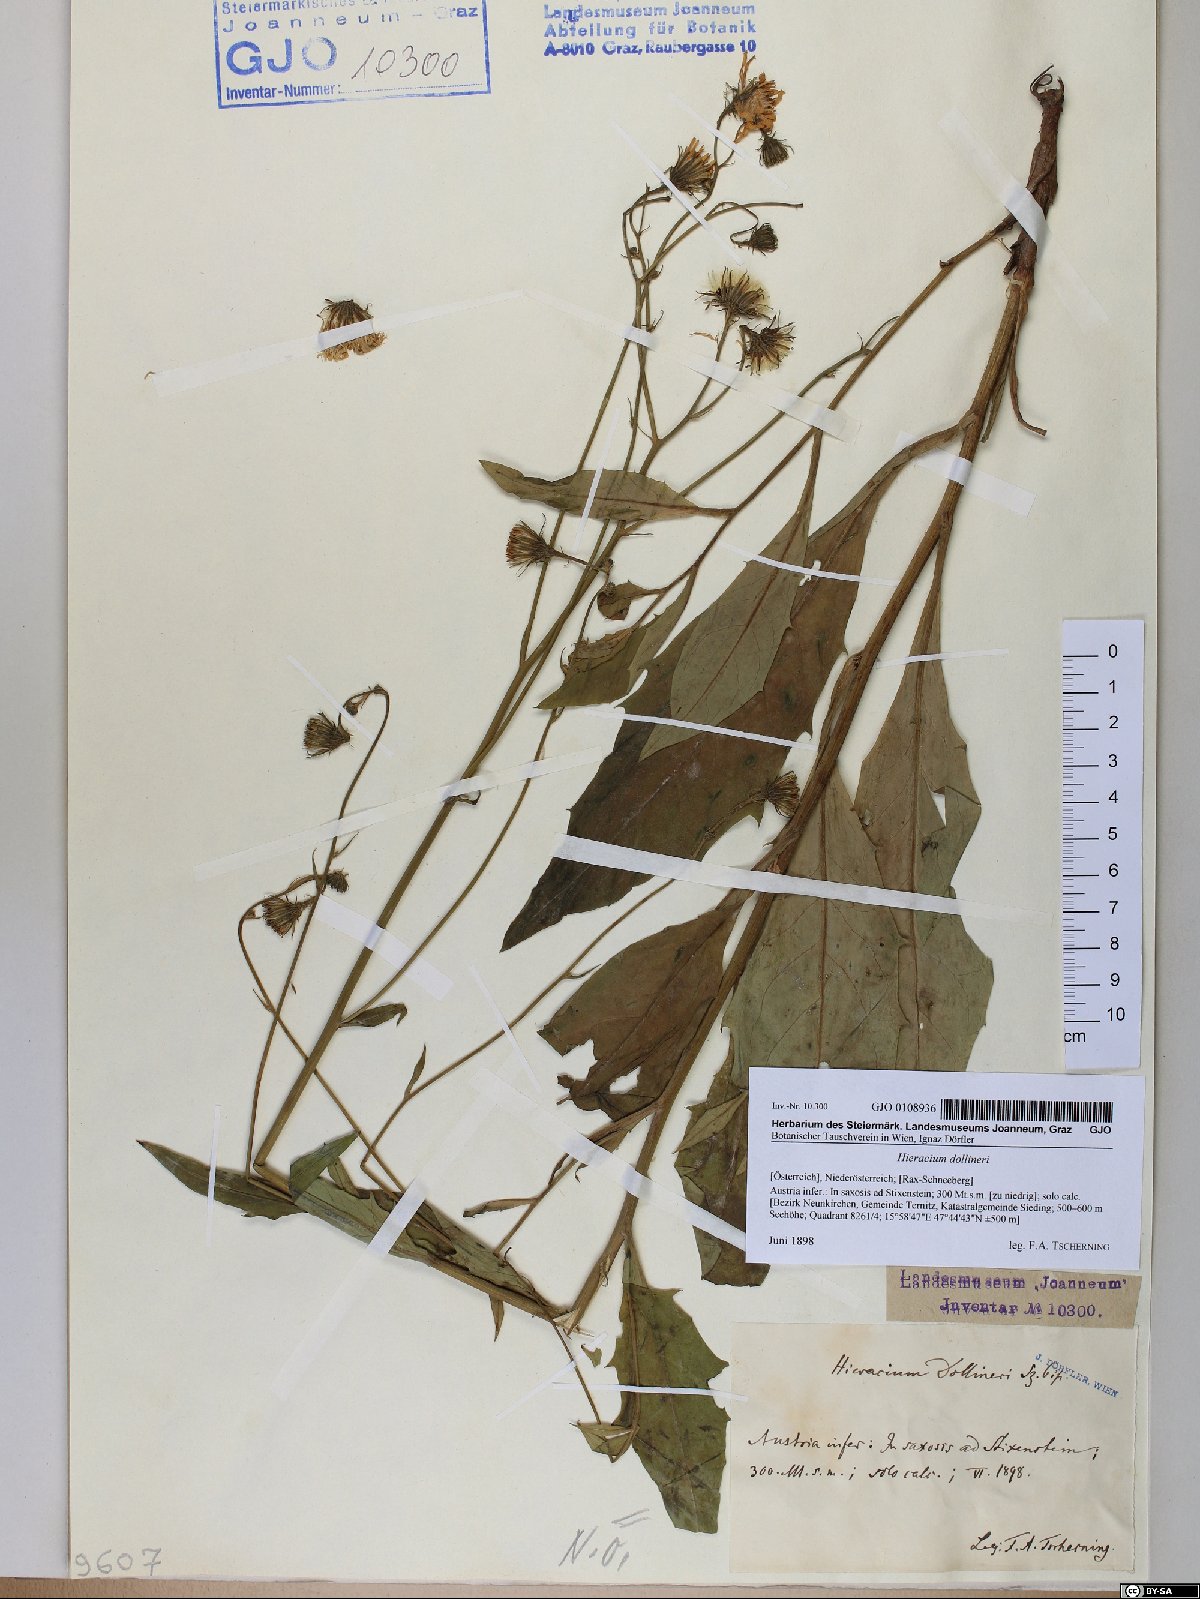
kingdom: Plantae
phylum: Tracheophyta
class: Magnoliopsida
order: Asterales
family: Asteraceae
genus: Hieracium
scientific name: Hieracium dollineri
